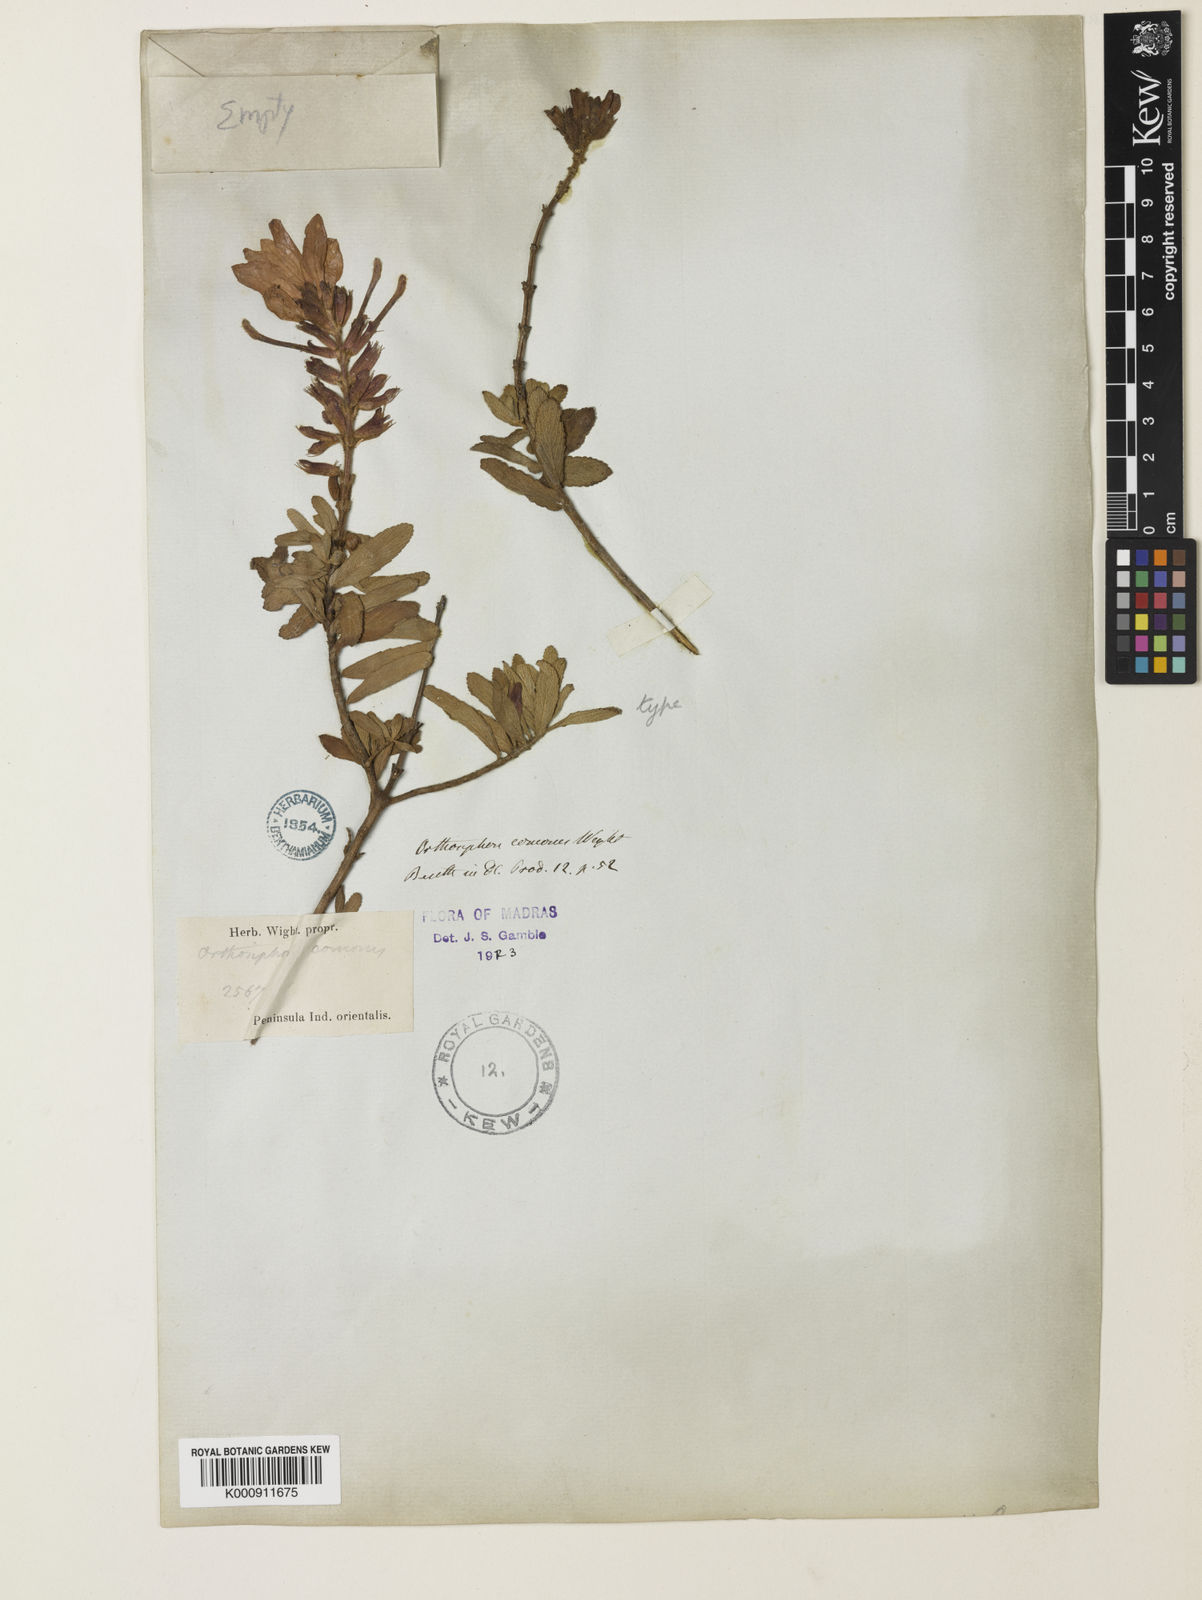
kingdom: Plantae
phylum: Tracheophyta
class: Magnoliopsida
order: Lamiales
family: Lamiaceae
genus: Syncolostemon
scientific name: Syncolostemon comosus
